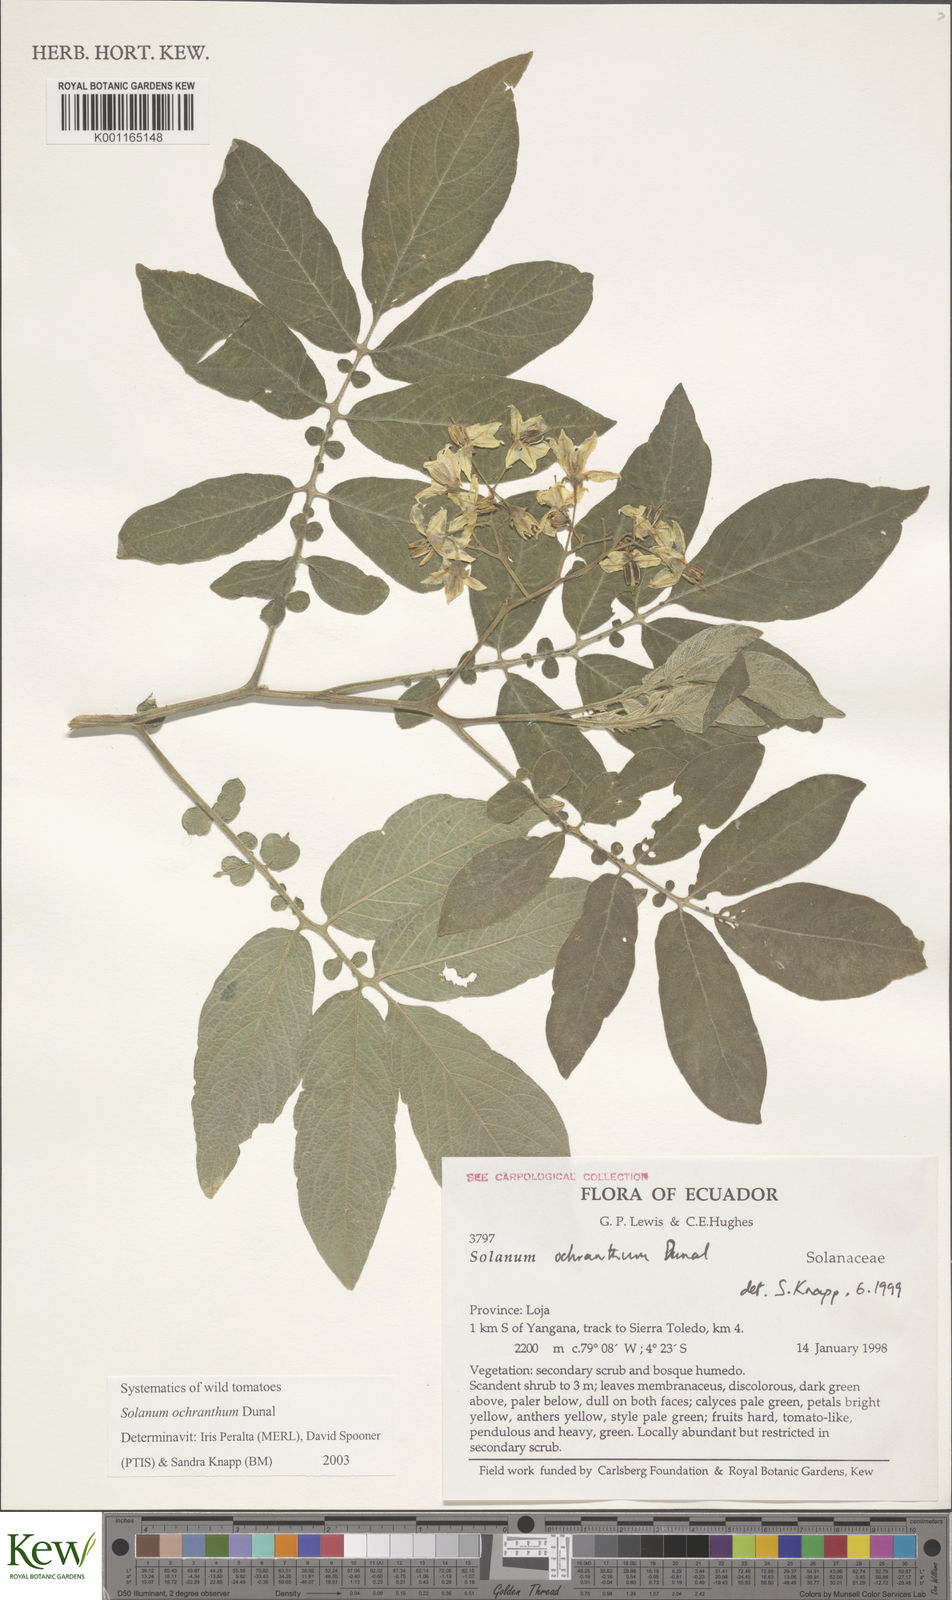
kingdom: Plantae
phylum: Tracheophyta
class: Magnoliopsida
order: Solanales
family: Solanaceae
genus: Solanum
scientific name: Solanum ochranthum
